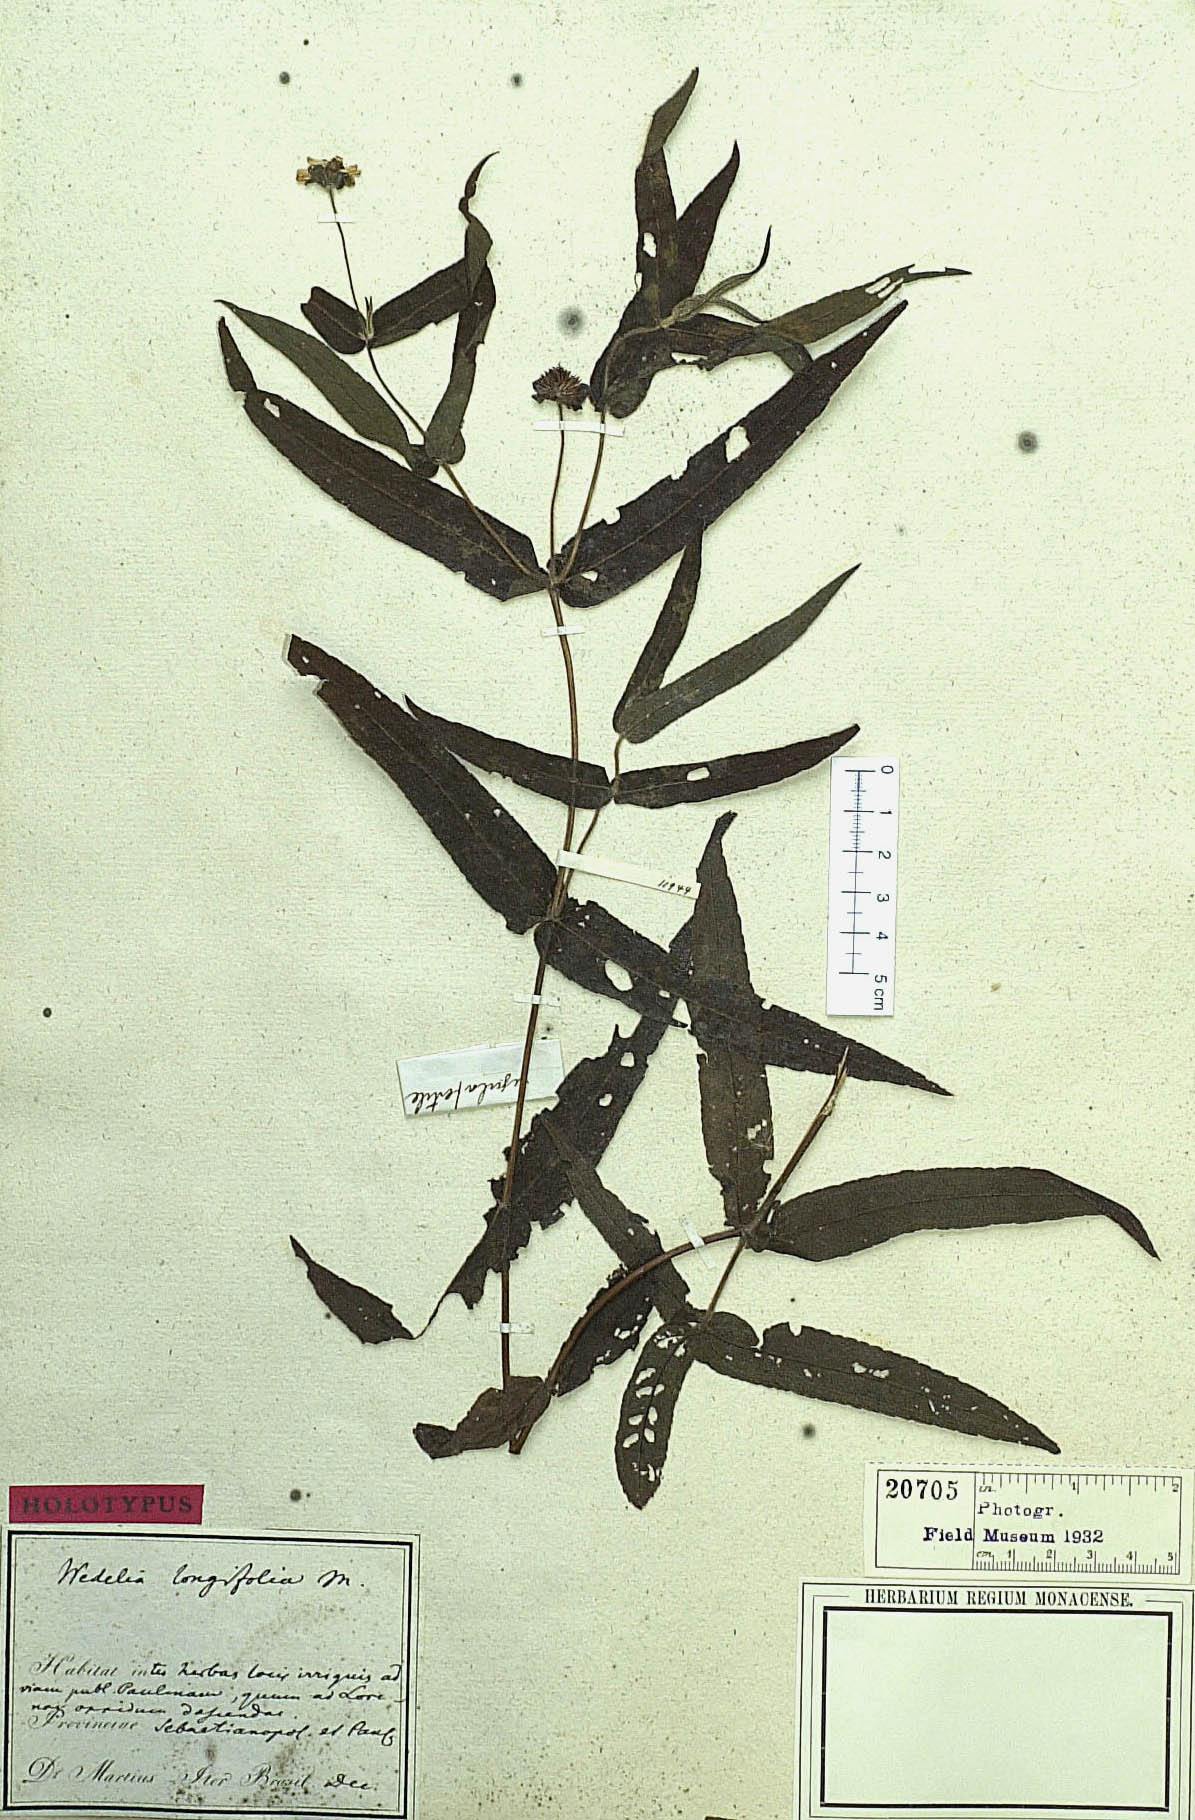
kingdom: Plantae
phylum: Tracheophyta
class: Magnoliopsida
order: Asterales
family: Asteraceae
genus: Wedelia
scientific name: Wedelia longifolia
